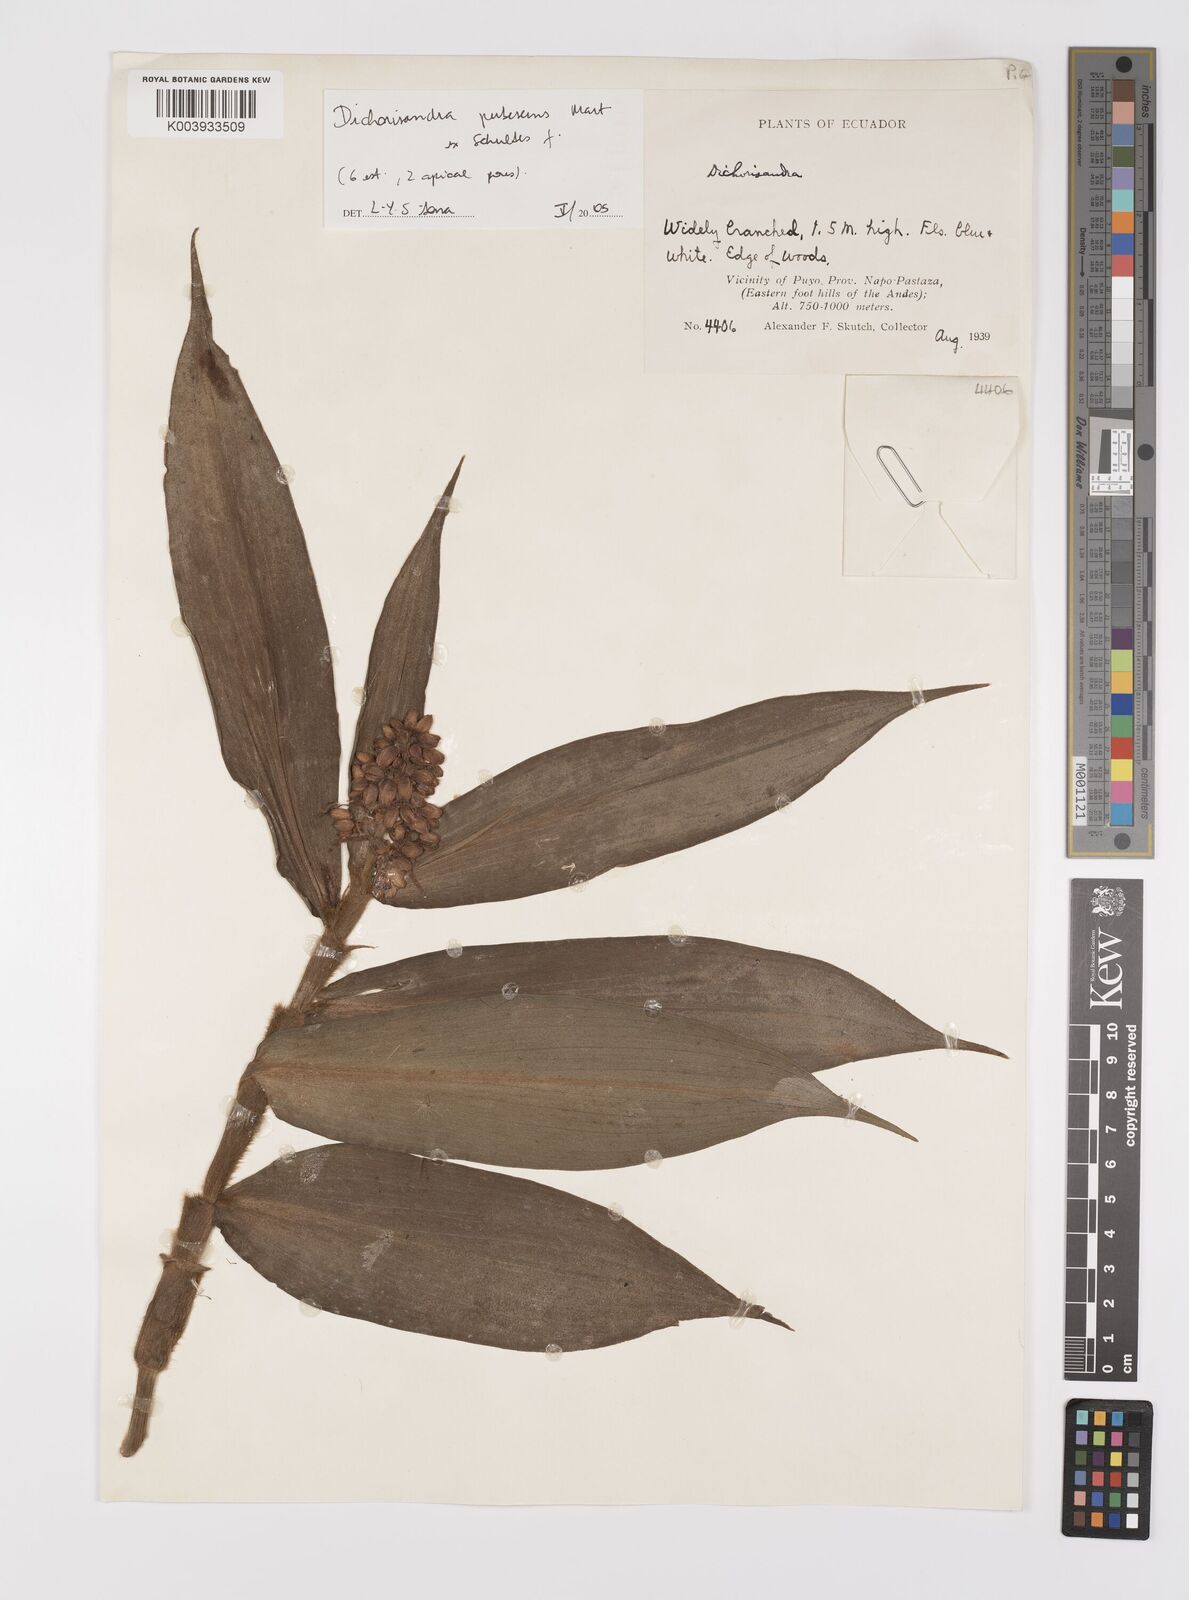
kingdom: Plantae
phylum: Tracheophyta
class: Liliopsida
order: Commelinales
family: Commelinaceae
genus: Dichorisandra
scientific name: Dichorisandra pubescens
